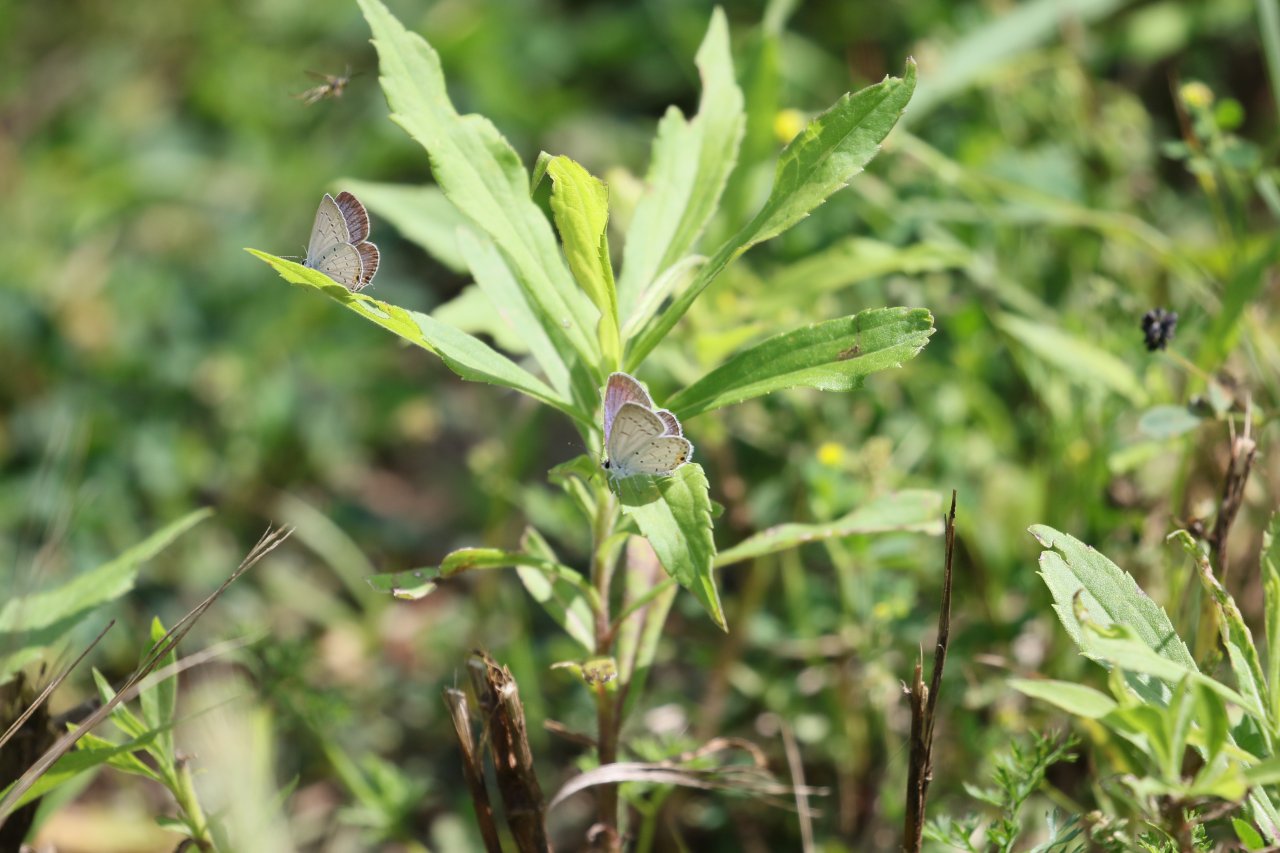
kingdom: Animalia
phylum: Arthropoda
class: Insecta
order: Lepidoptera
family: Lycaenidae
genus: Elkalyce
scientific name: Elkalyce comyntas
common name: Eastern Tailed-Blue
